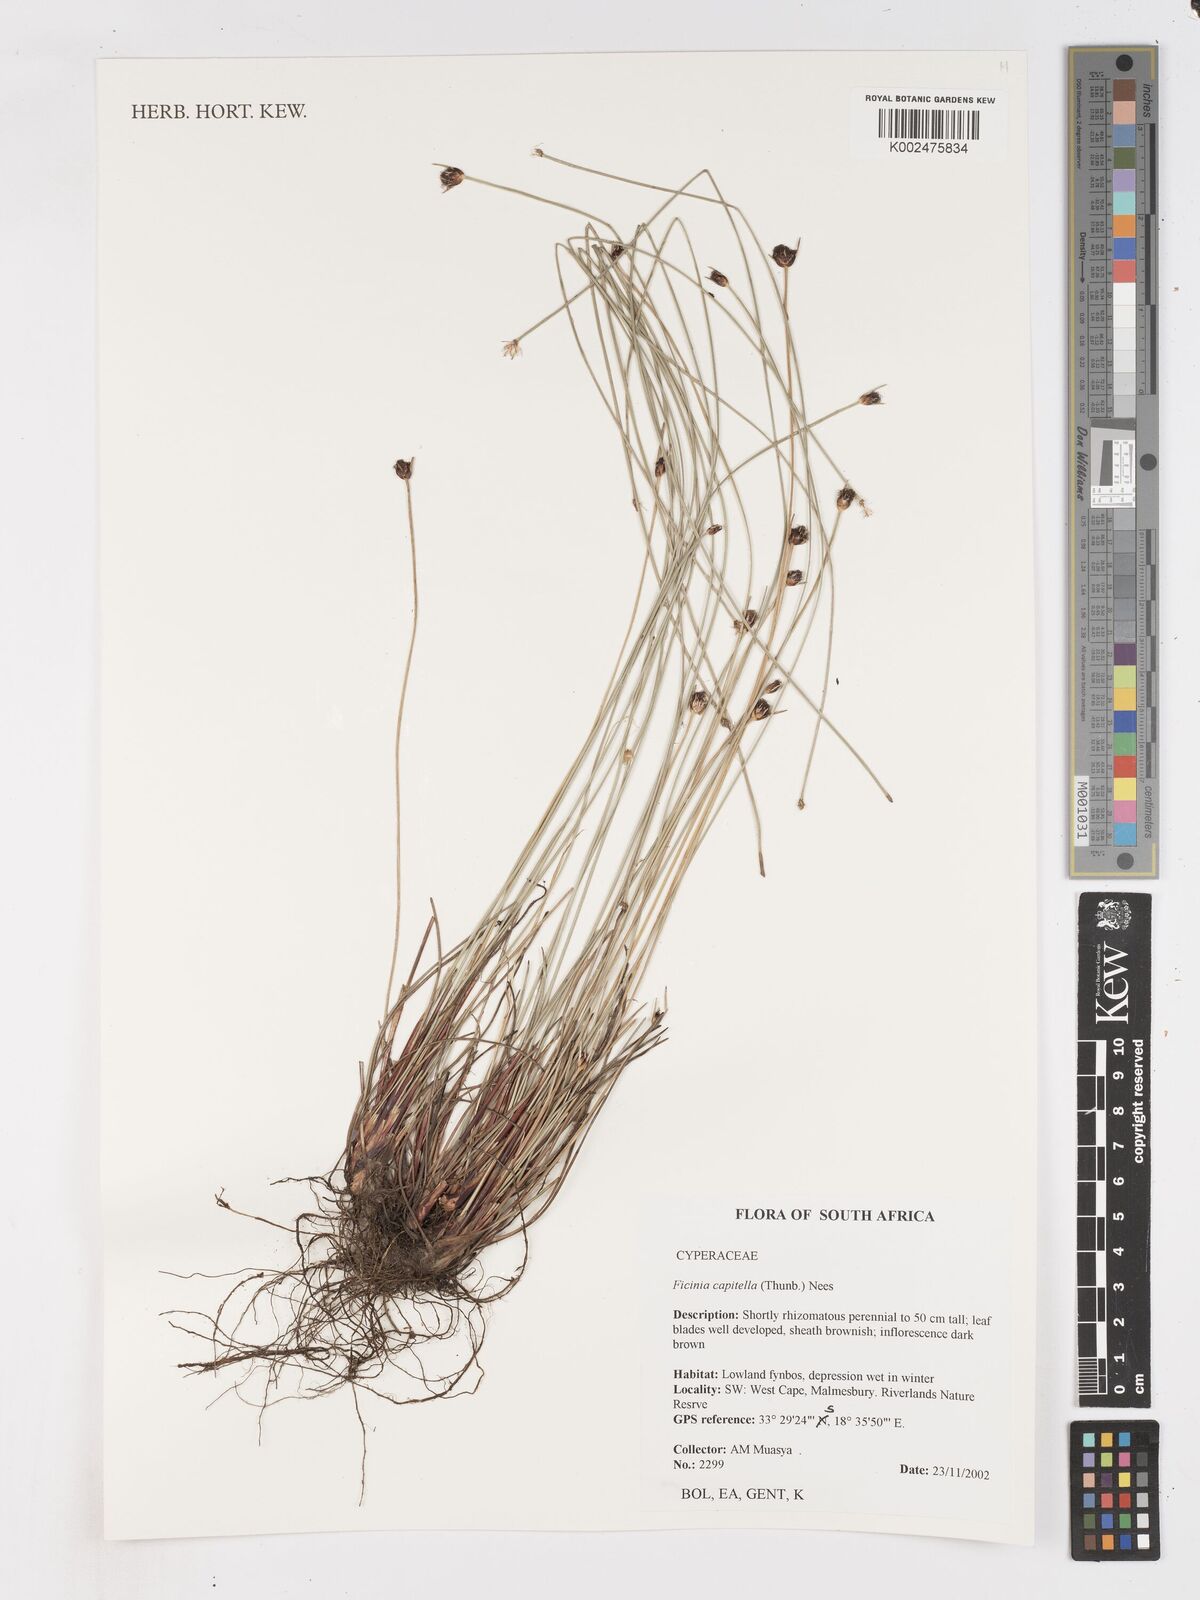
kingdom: Plantae
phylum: Tracheophyta
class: Liliopsida
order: Poales
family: Cyperaceae
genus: Ficinia
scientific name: Ficinia capitella
